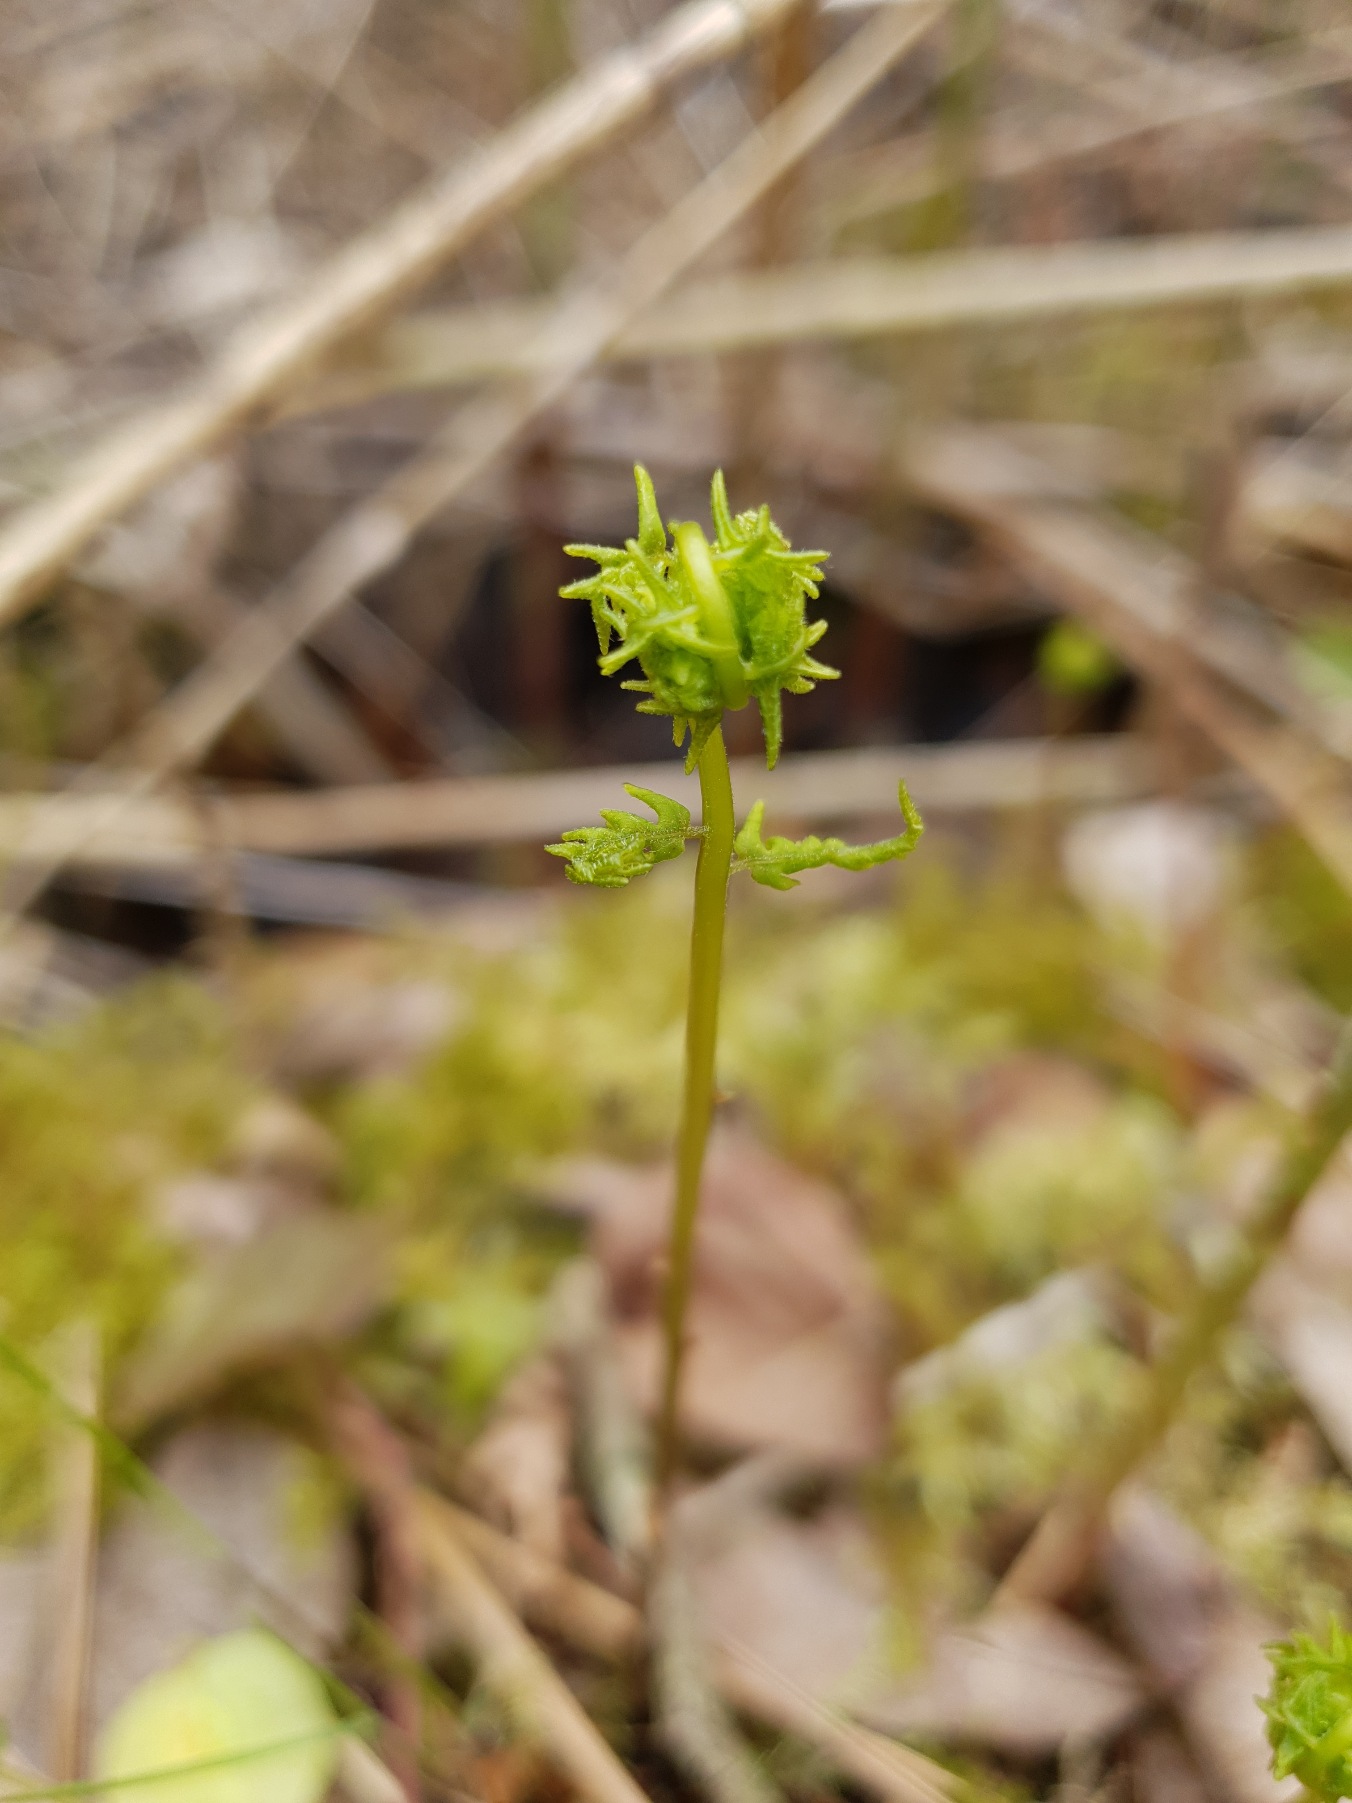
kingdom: Plantae
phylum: Tracheophyta
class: Polypodiopsida
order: Polypodiales
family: Thelypteridaceae
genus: Thelypteris
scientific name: Thelypteris palustris
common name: Kærmangeløv
